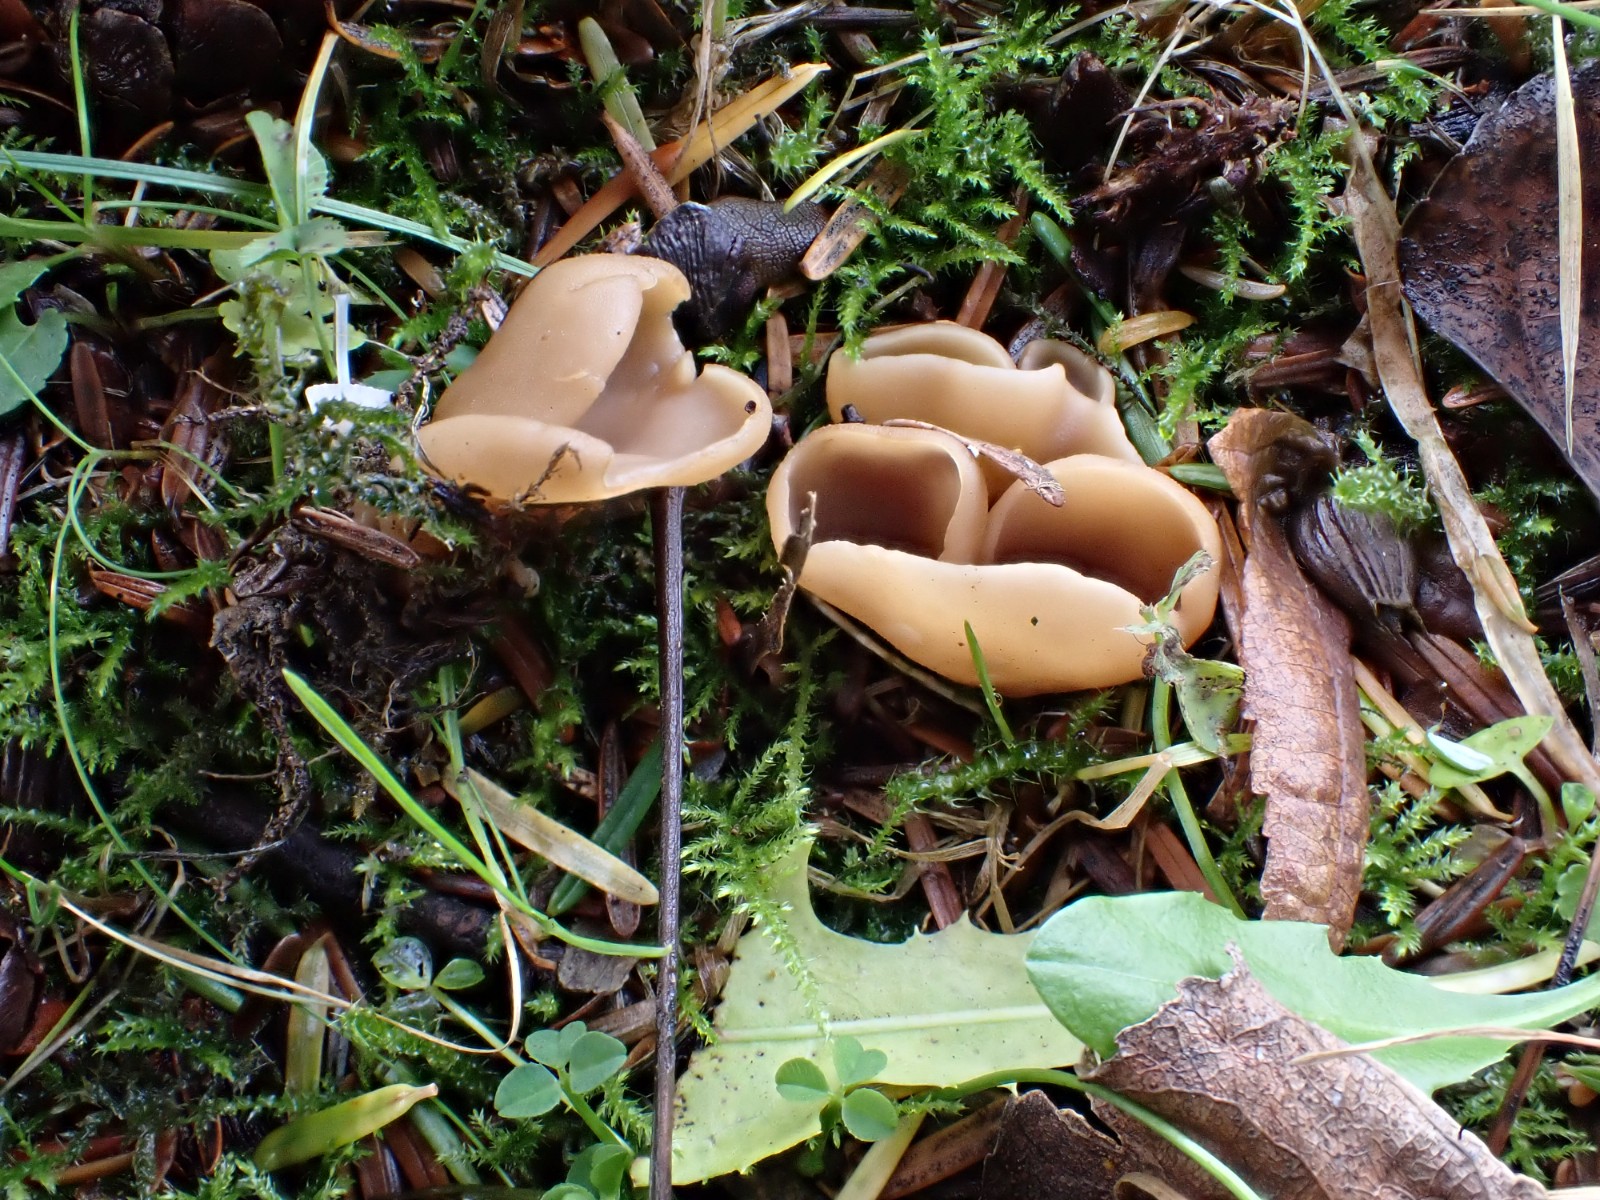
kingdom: Fungi
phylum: Ascomycota
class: Pezizomycetes
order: Pezizales
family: Otideaceae
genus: Otidea
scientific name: Otidea alutacea
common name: læder-ørebæger
